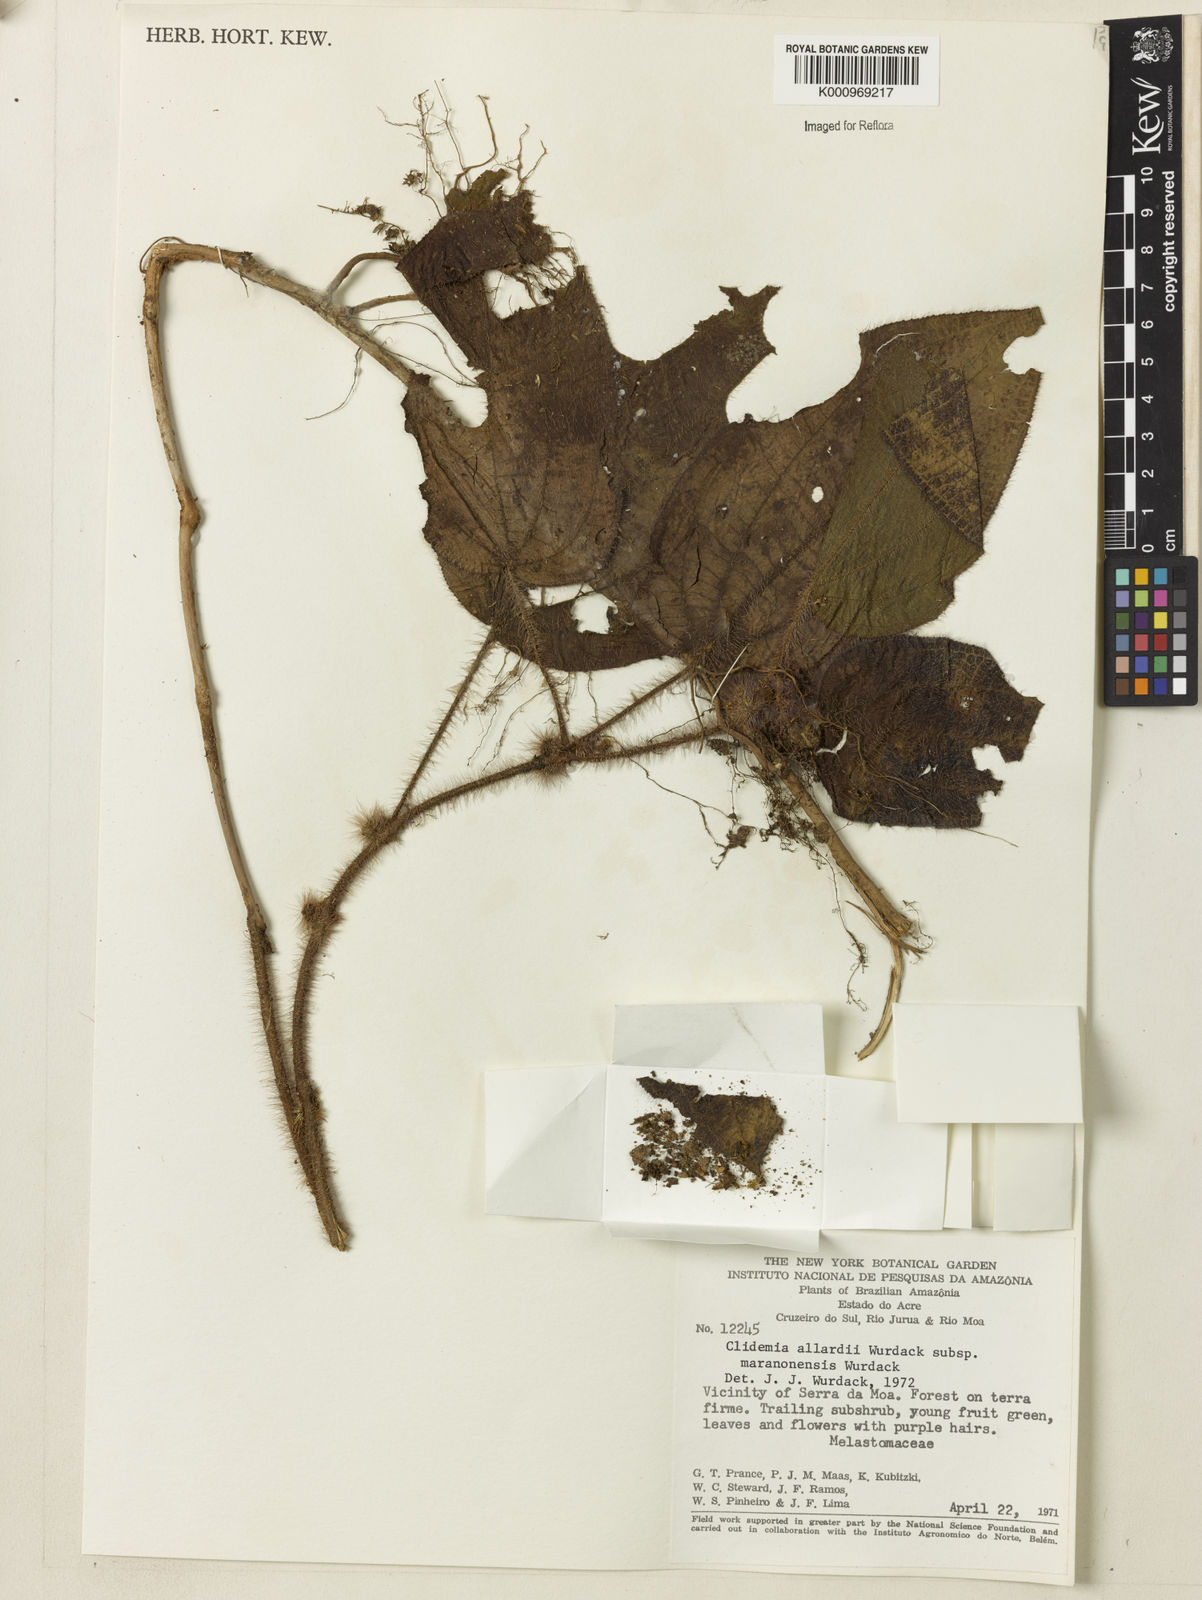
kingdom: Plantae
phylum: Tracheophyta
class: Magnoliopsida
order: Myrtales
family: Melastomataceae
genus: Miconia
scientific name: Miconia allardii
